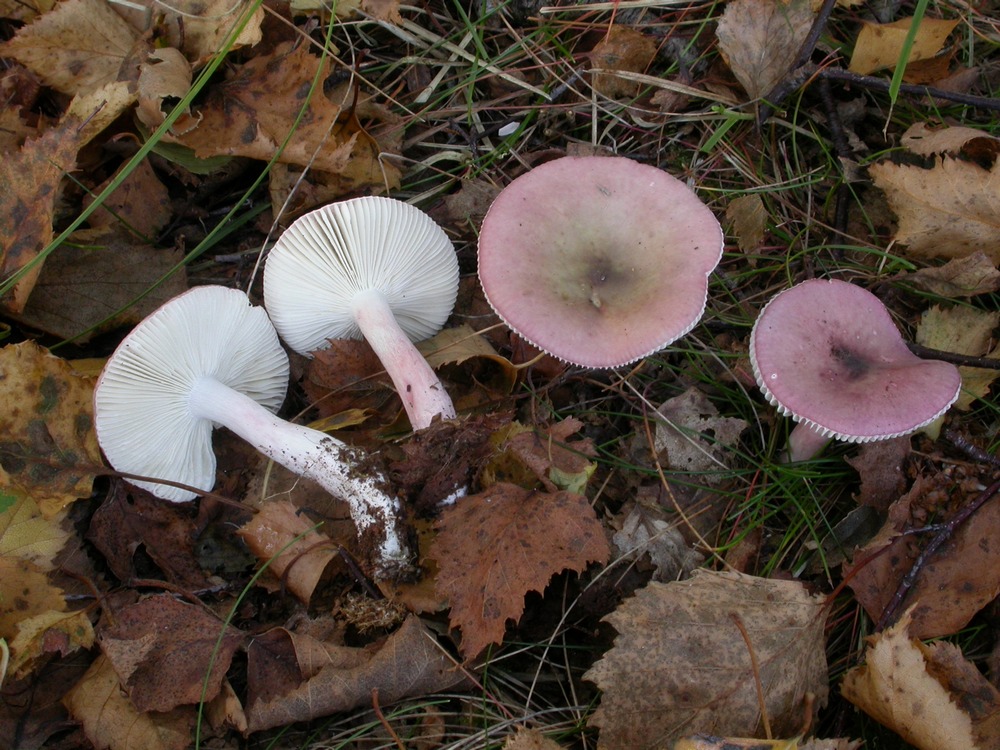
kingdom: Fungi
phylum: Basidiomycota
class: Agaricomycetes
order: Russulales
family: Russulaceae
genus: Russula
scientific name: Russula nitida
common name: året skørhat
